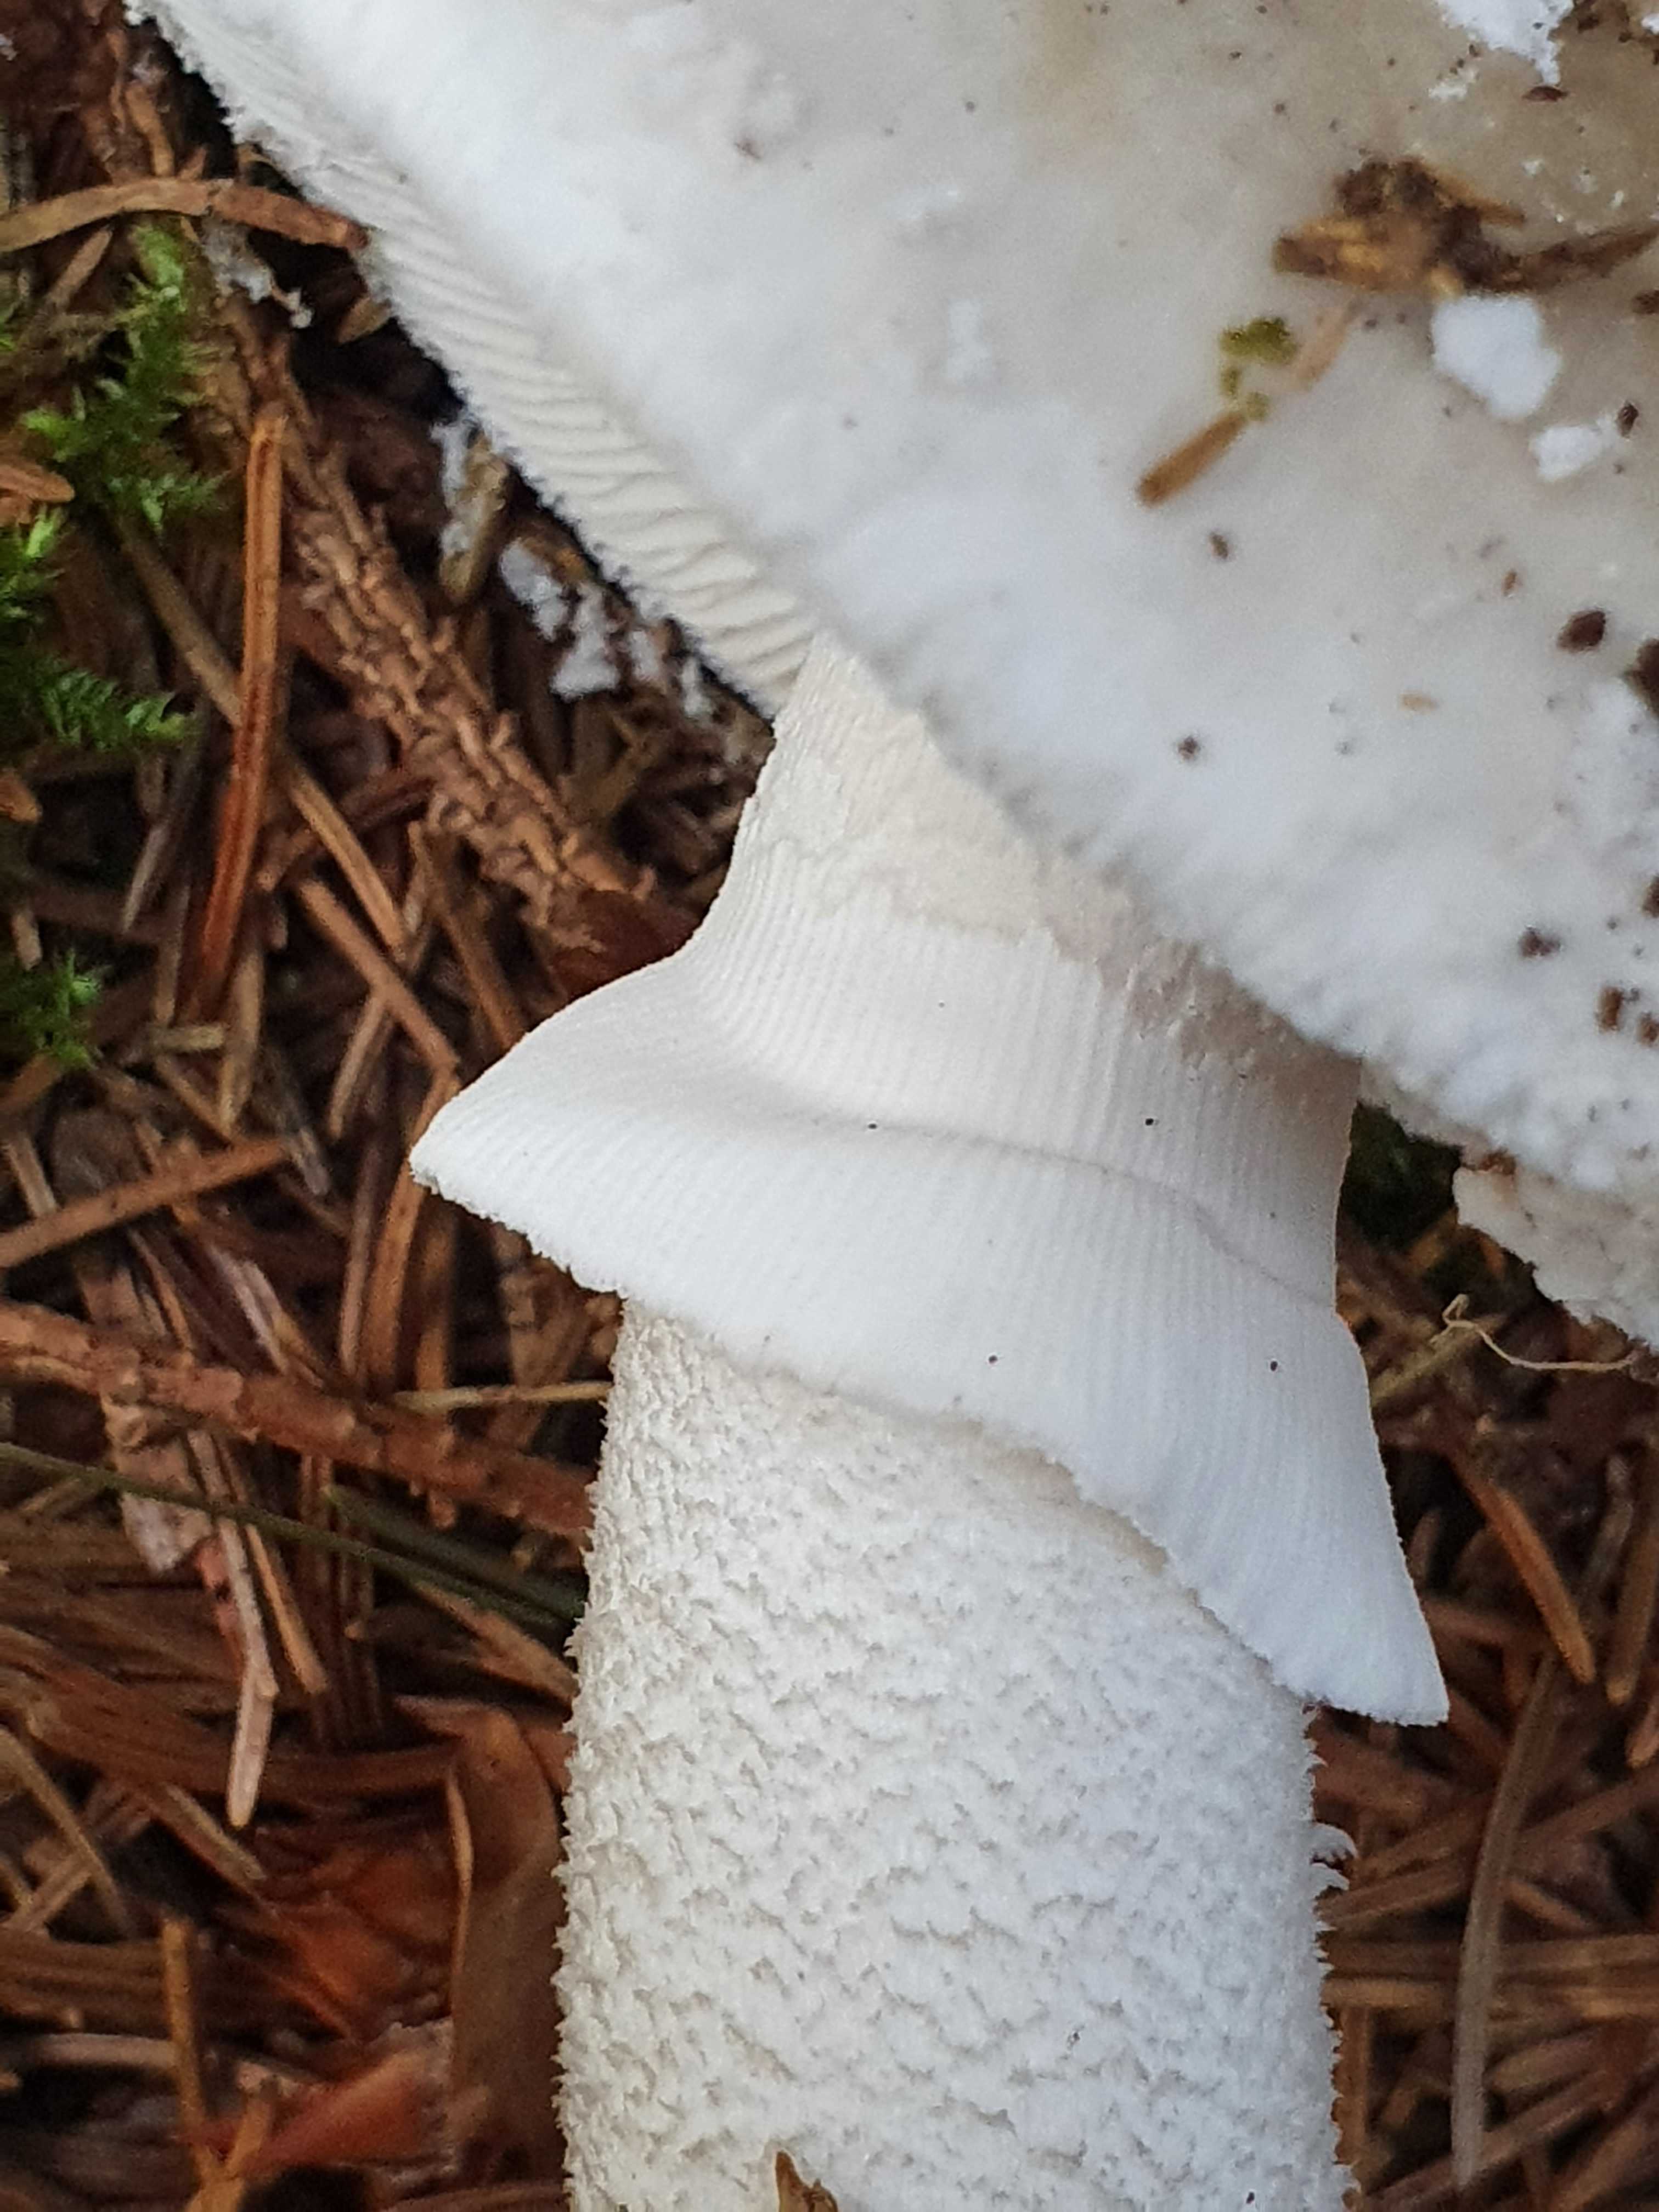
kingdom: Fungi
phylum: Basidiomycota
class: Agaricomycetes
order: Agaricales
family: Amanitaceae
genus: Amanita
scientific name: Amanita
